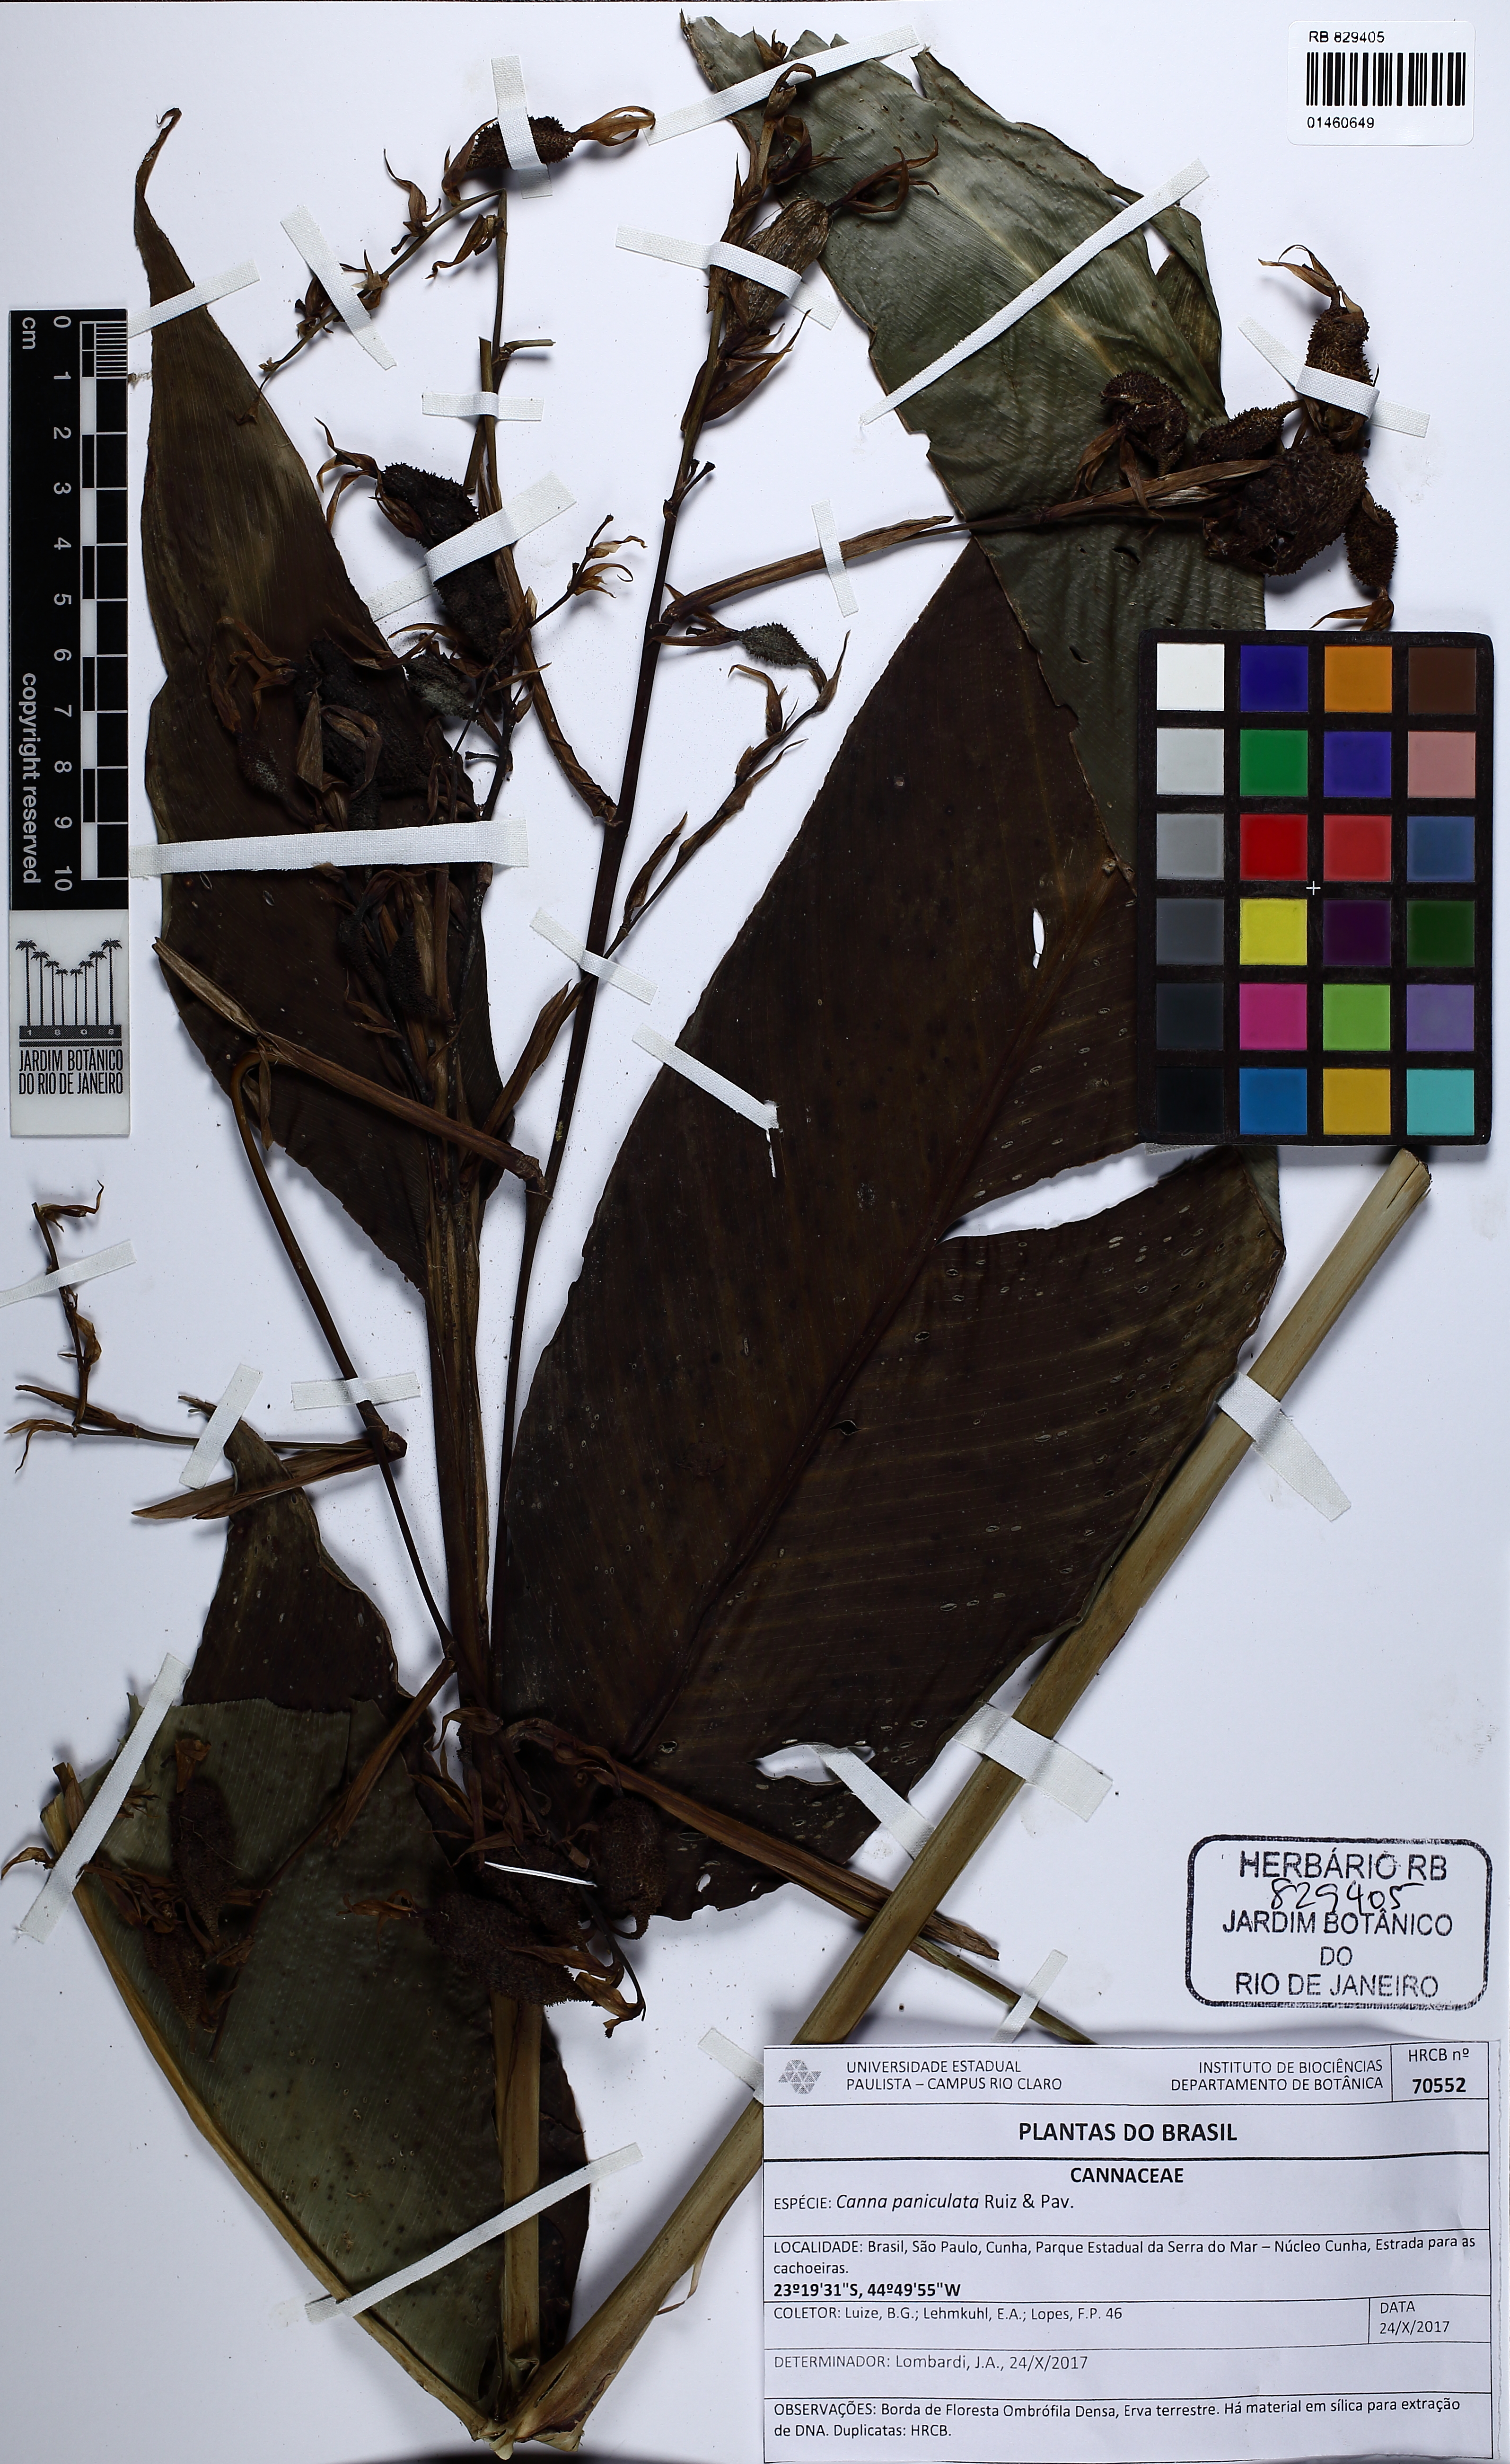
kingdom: Plantae
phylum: Tracheophyta
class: Liliopsida
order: Zingiberales
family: Cannaceae
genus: Canna
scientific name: Canna paniculata
